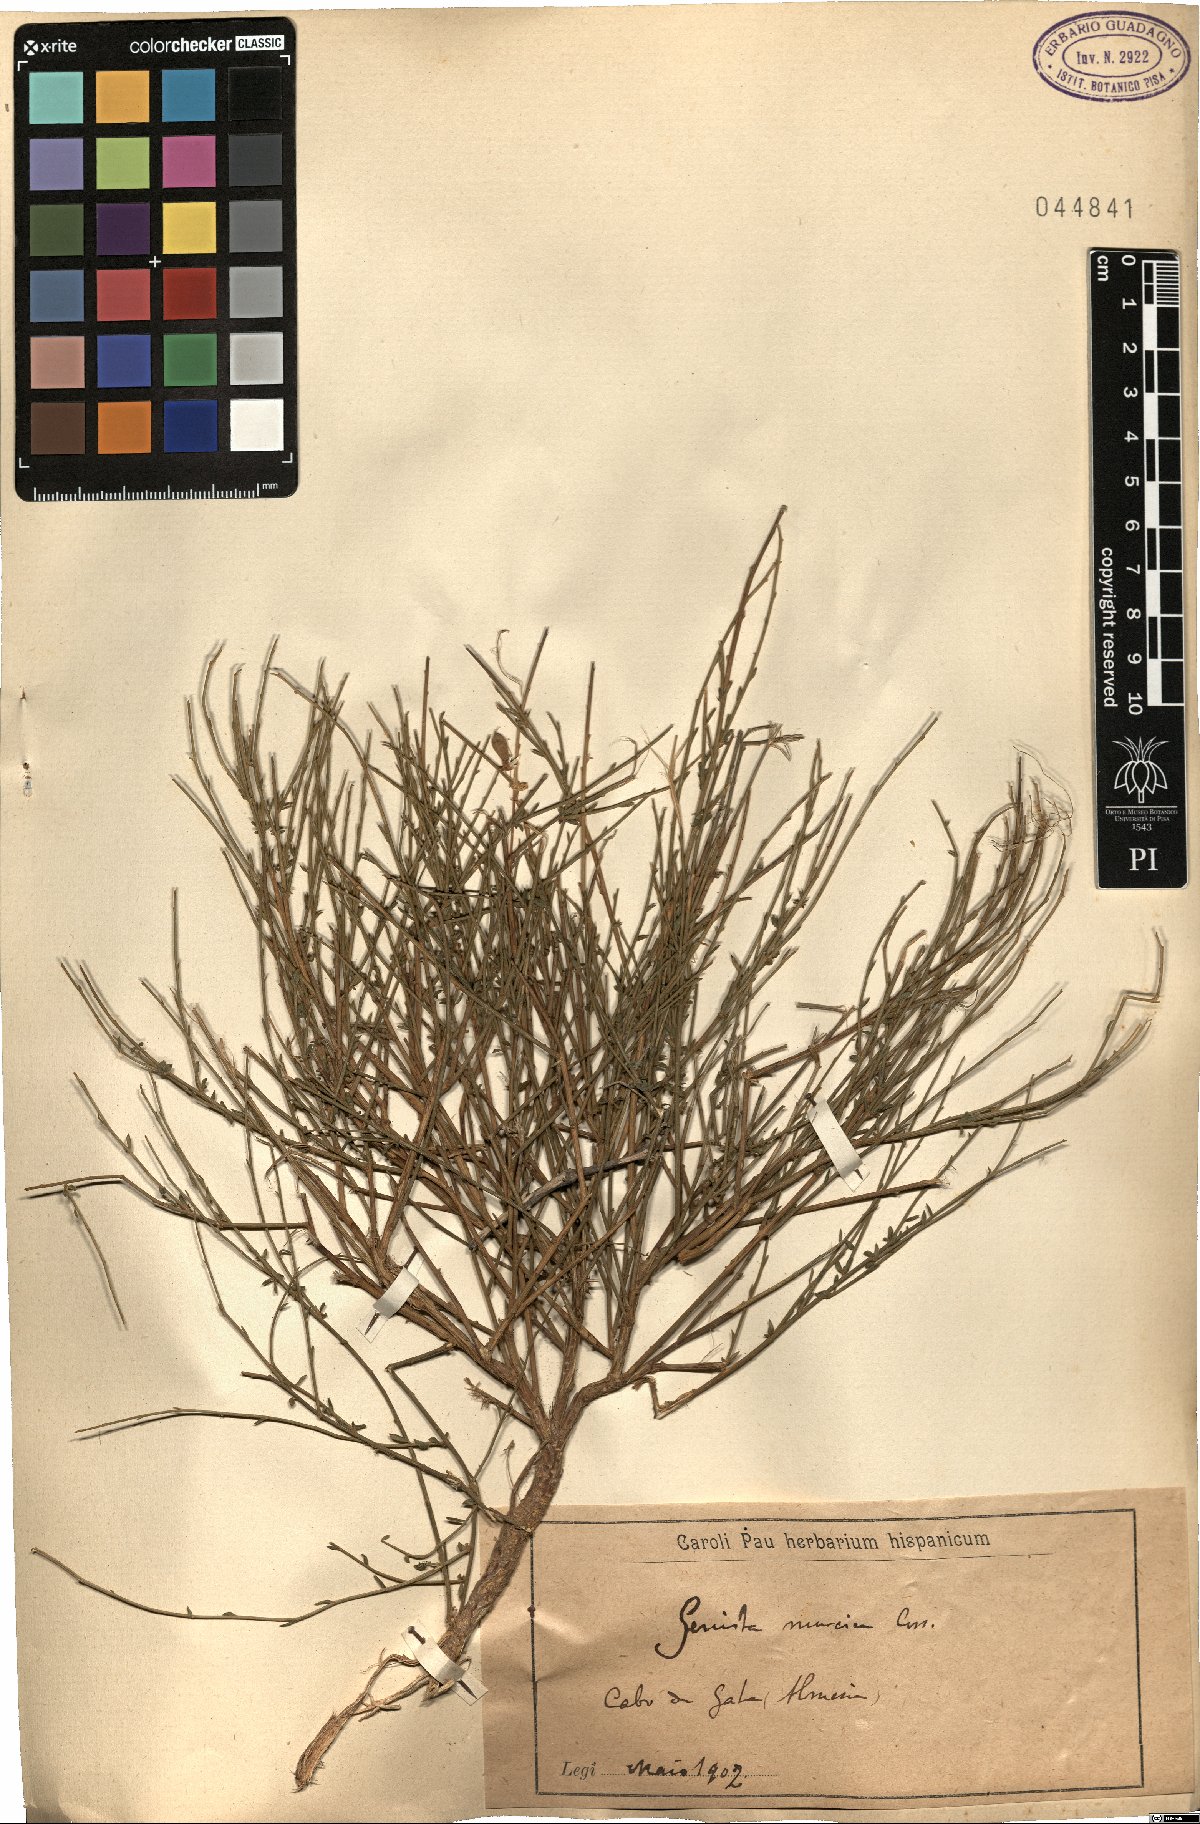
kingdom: Plantae
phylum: Tracheophyta
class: Magnoliopsida
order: Fabales
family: Fabaceae
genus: Genista
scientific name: Genista cinerea
